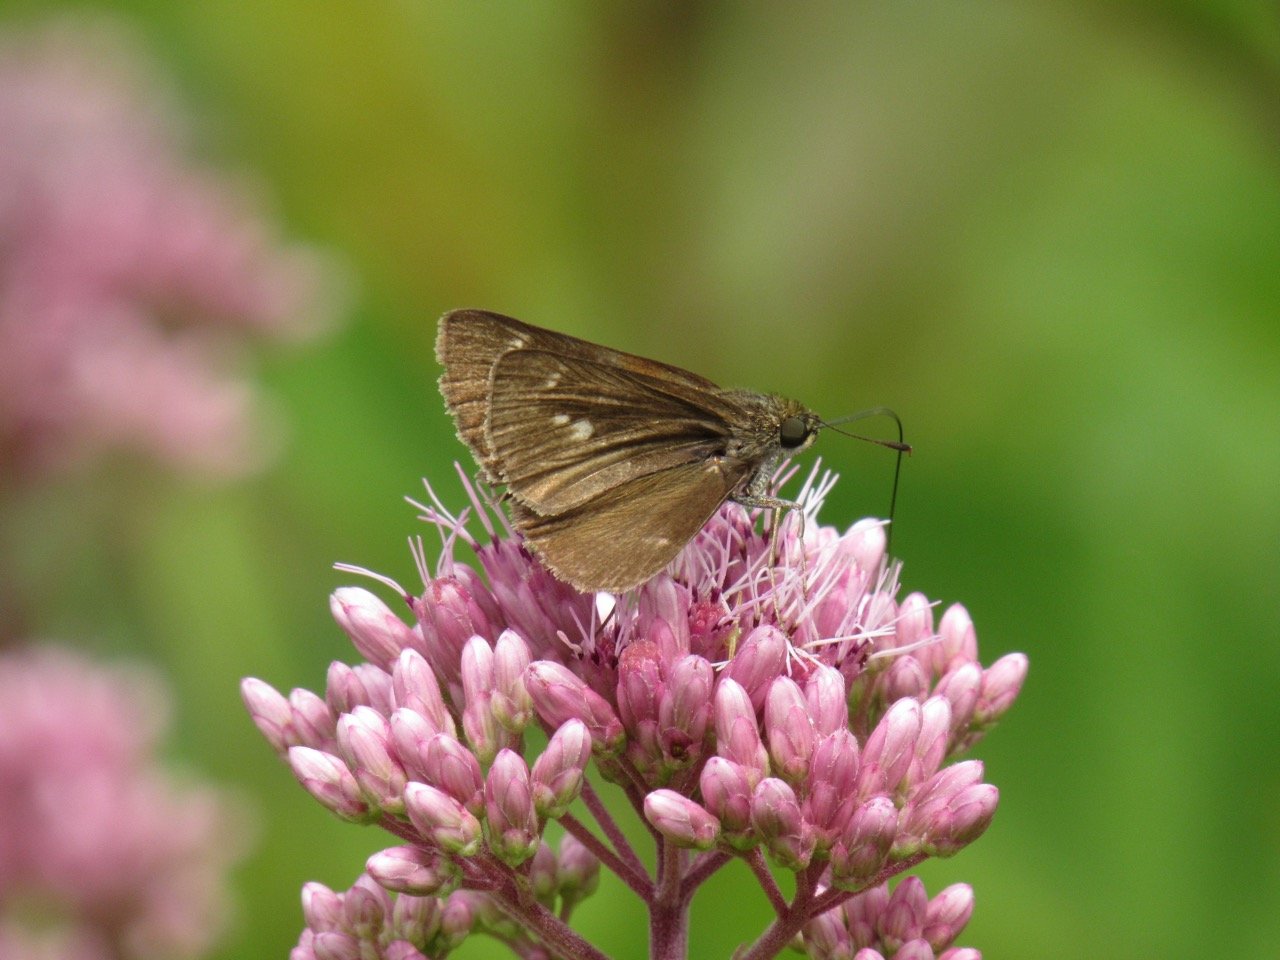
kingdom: Animalia
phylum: Arthropoda
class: Insecta
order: Lepidoptera
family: Hesperiidae
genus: Euphyes
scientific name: Euphyes vestris
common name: Dun Skipper
